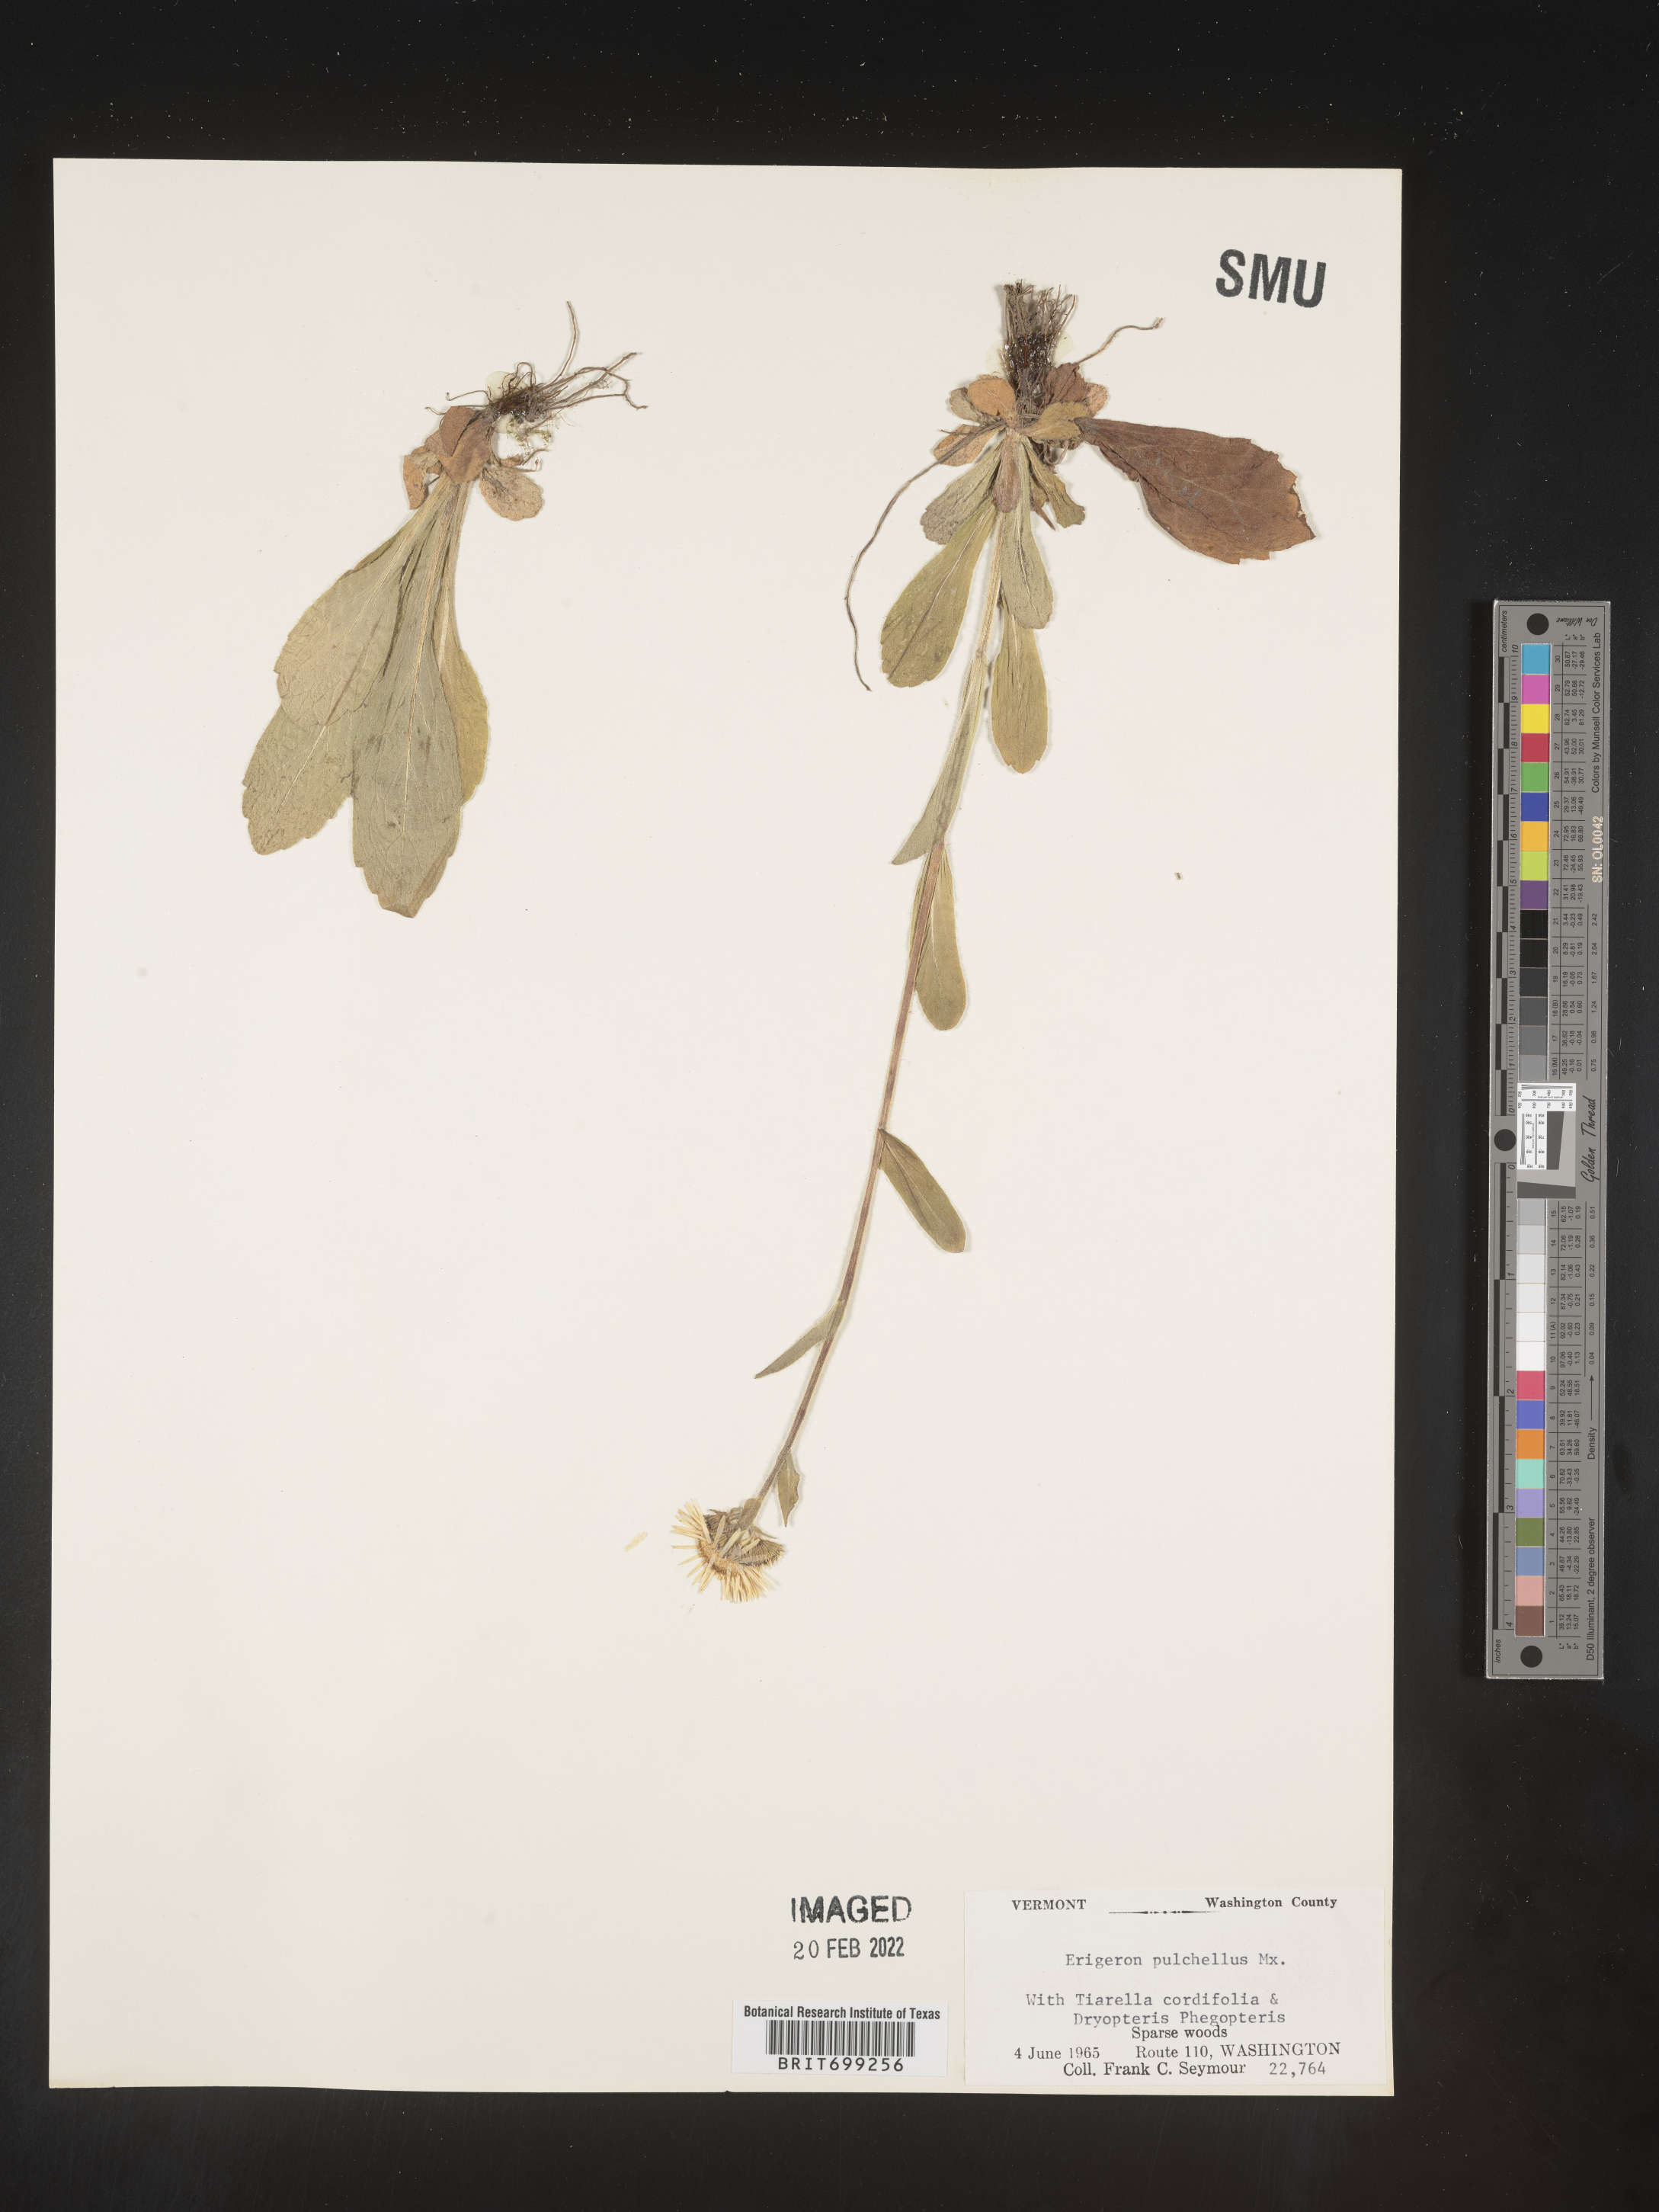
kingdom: Plantae
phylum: Tracheophyta
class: Magnoliopsida
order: Asterales
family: Asteraceae
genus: Erigeron
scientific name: Erigeron pulchellus
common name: Hairy fleabane
